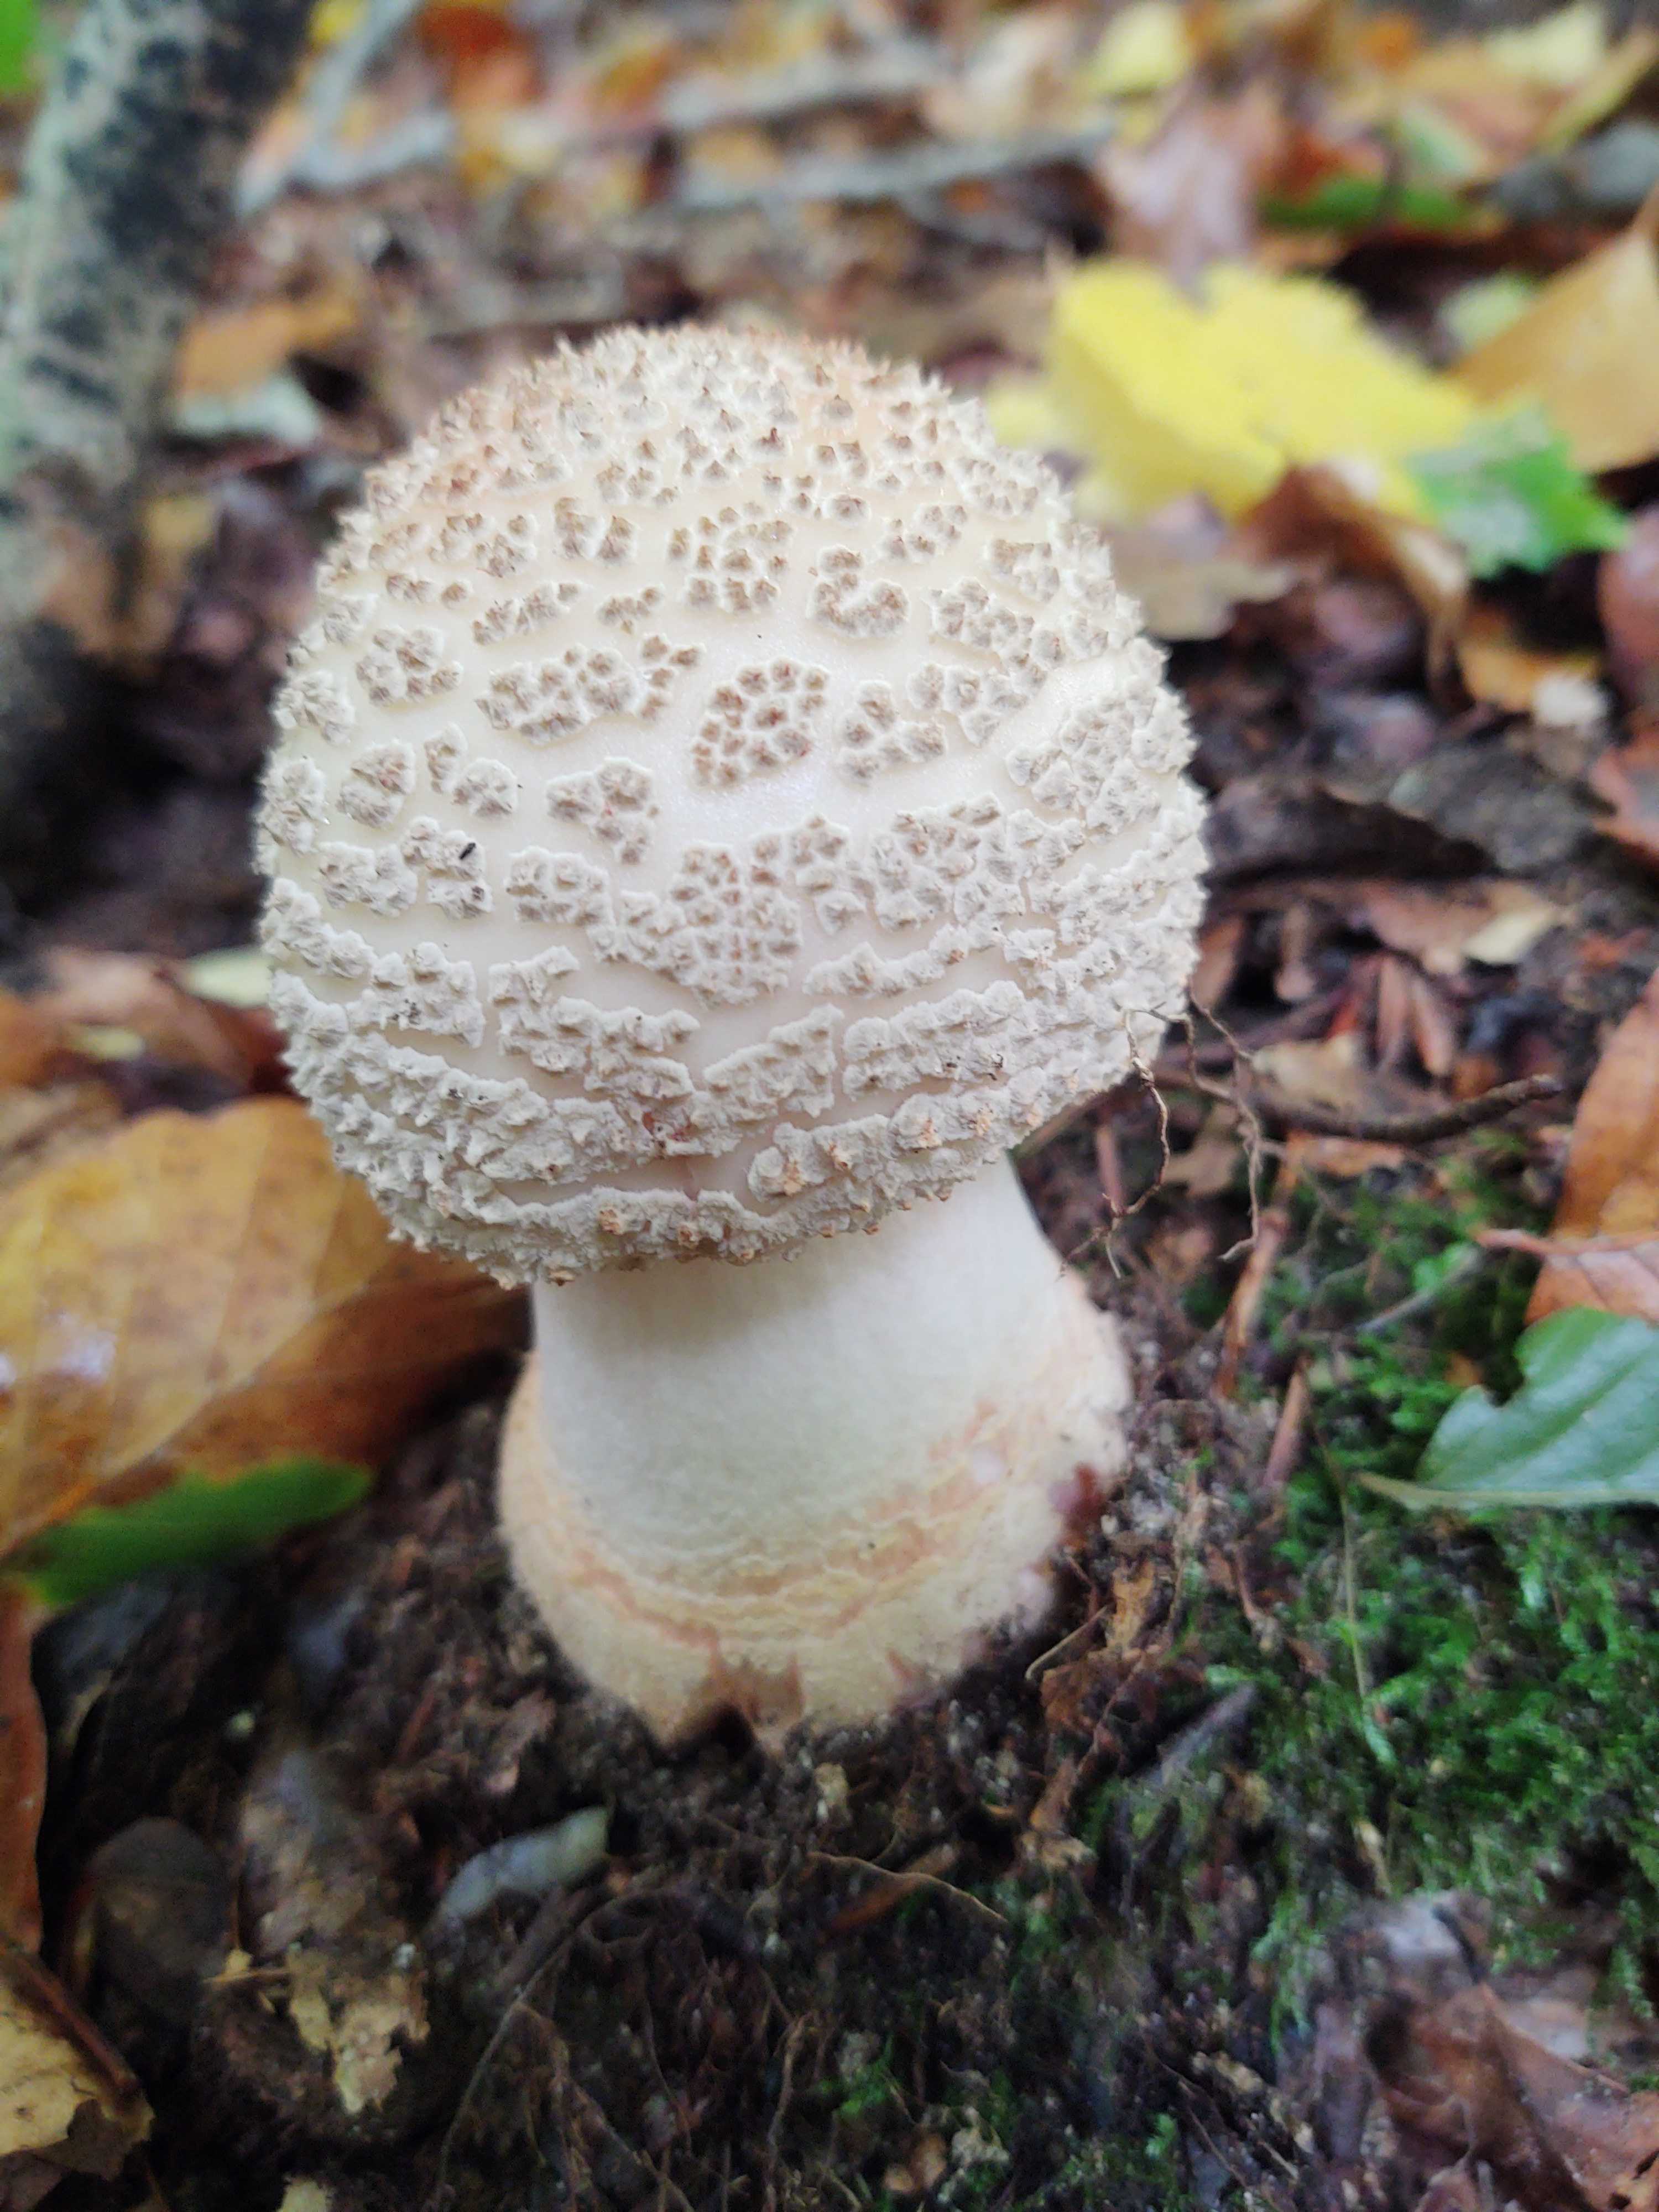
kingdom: Fungi
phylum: Basidiomycota
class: Agaricomycetes
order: Agaricales
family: Amanitaceae
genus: Amanita
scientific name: Amanita rubescens
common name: rødmende fluesvamp
